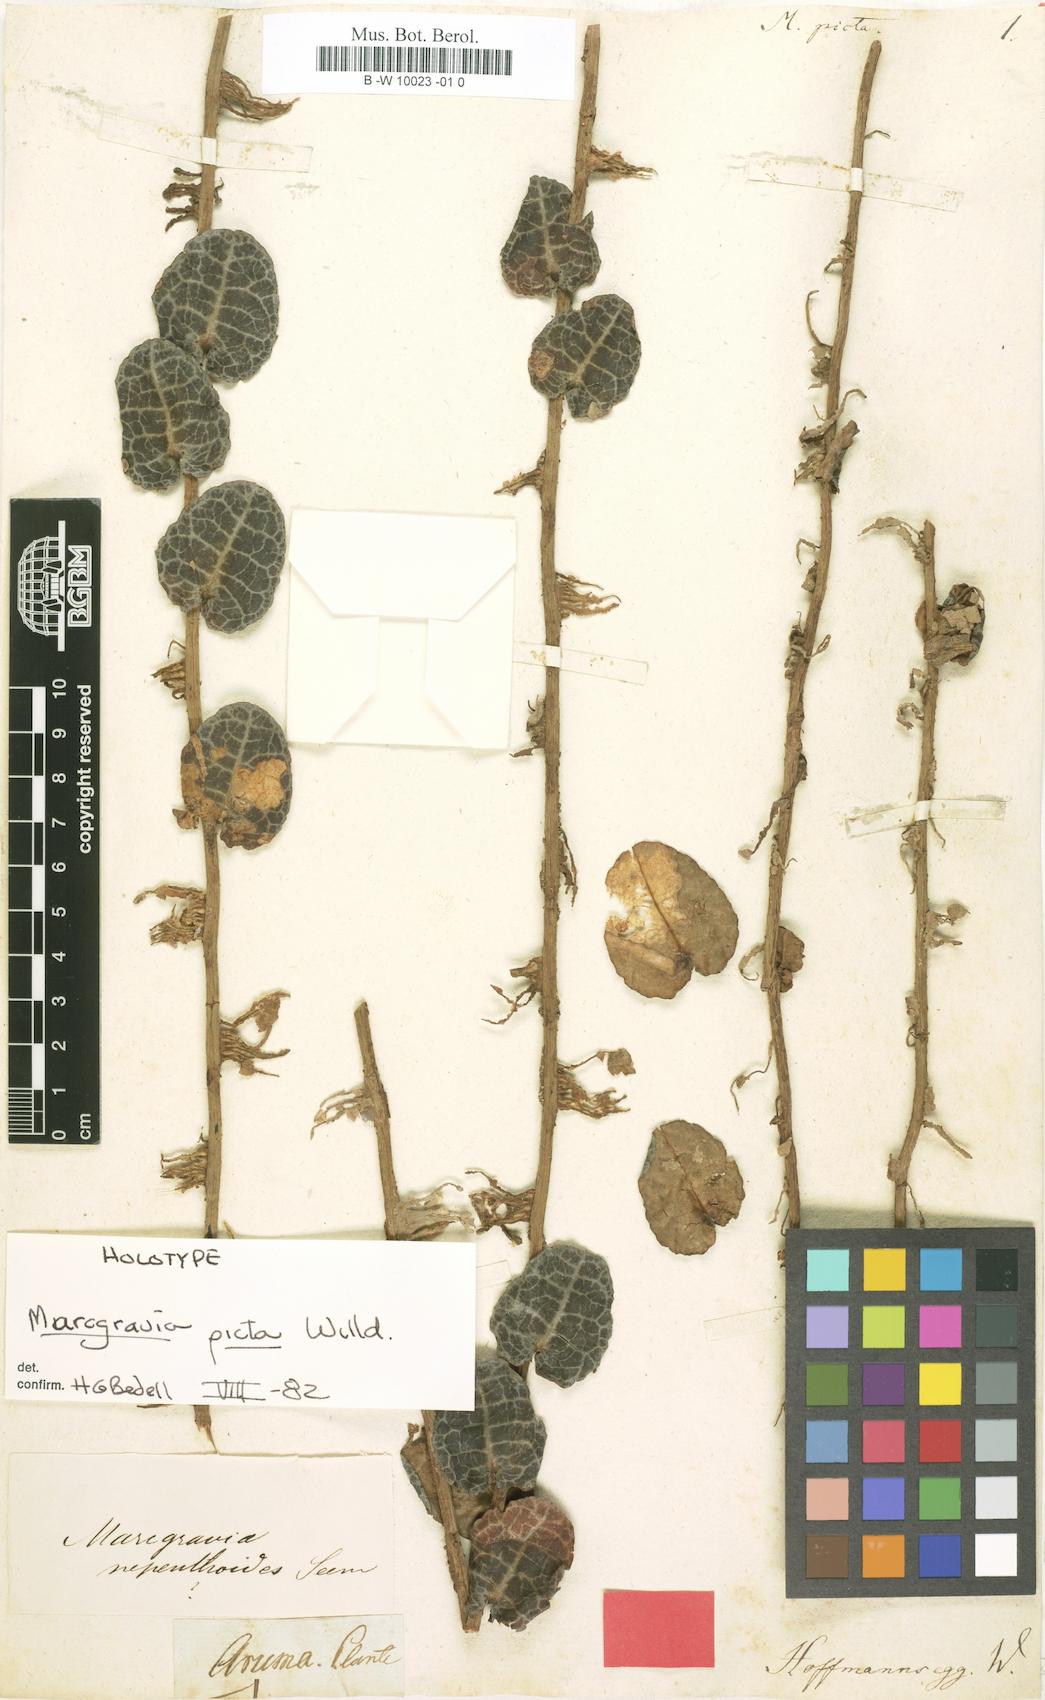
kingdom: Plantae
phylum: Tracheophyta
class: Magnoliopsida
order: Ericales
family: Marcgraviaceae
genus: Marcgravia
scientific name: Marcgravia coriacea
